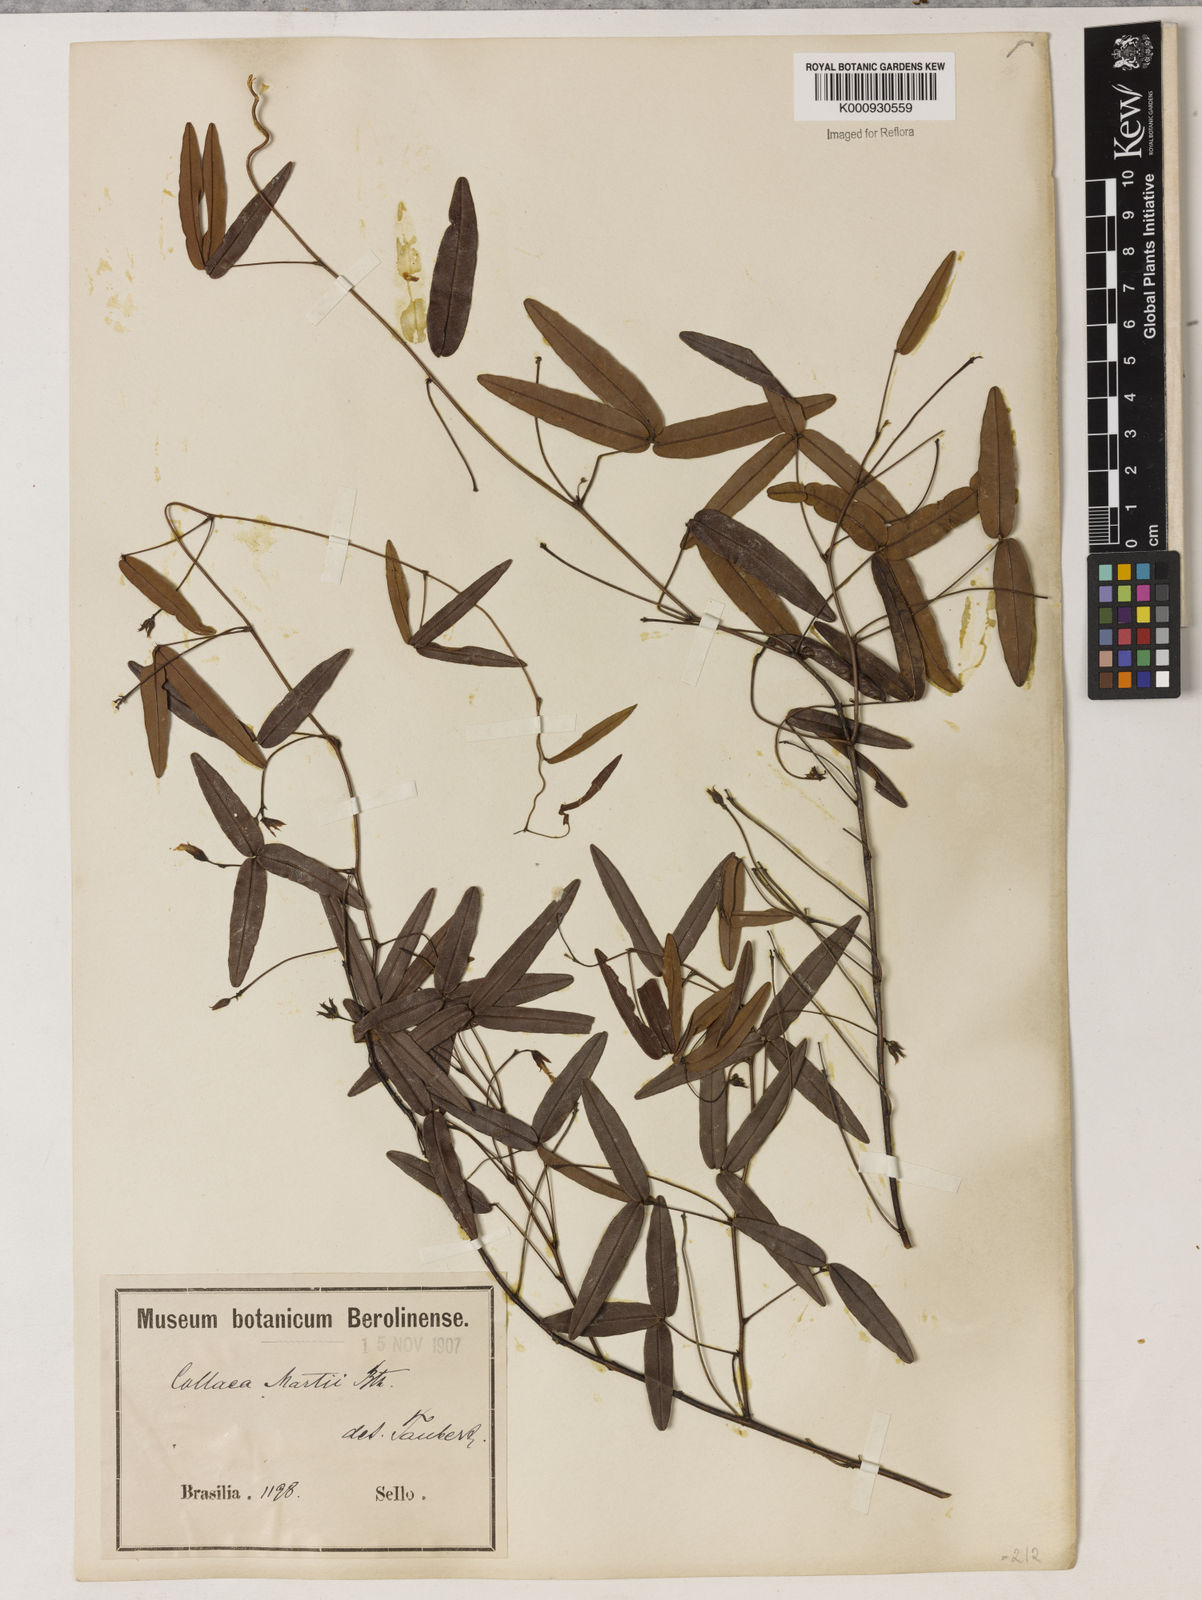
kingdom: Plantae
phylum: Tracheophyta
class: Magnoliopsida
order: Fabales
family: Fabaceae
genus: Betencourtia
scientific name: Betencourtia martii
